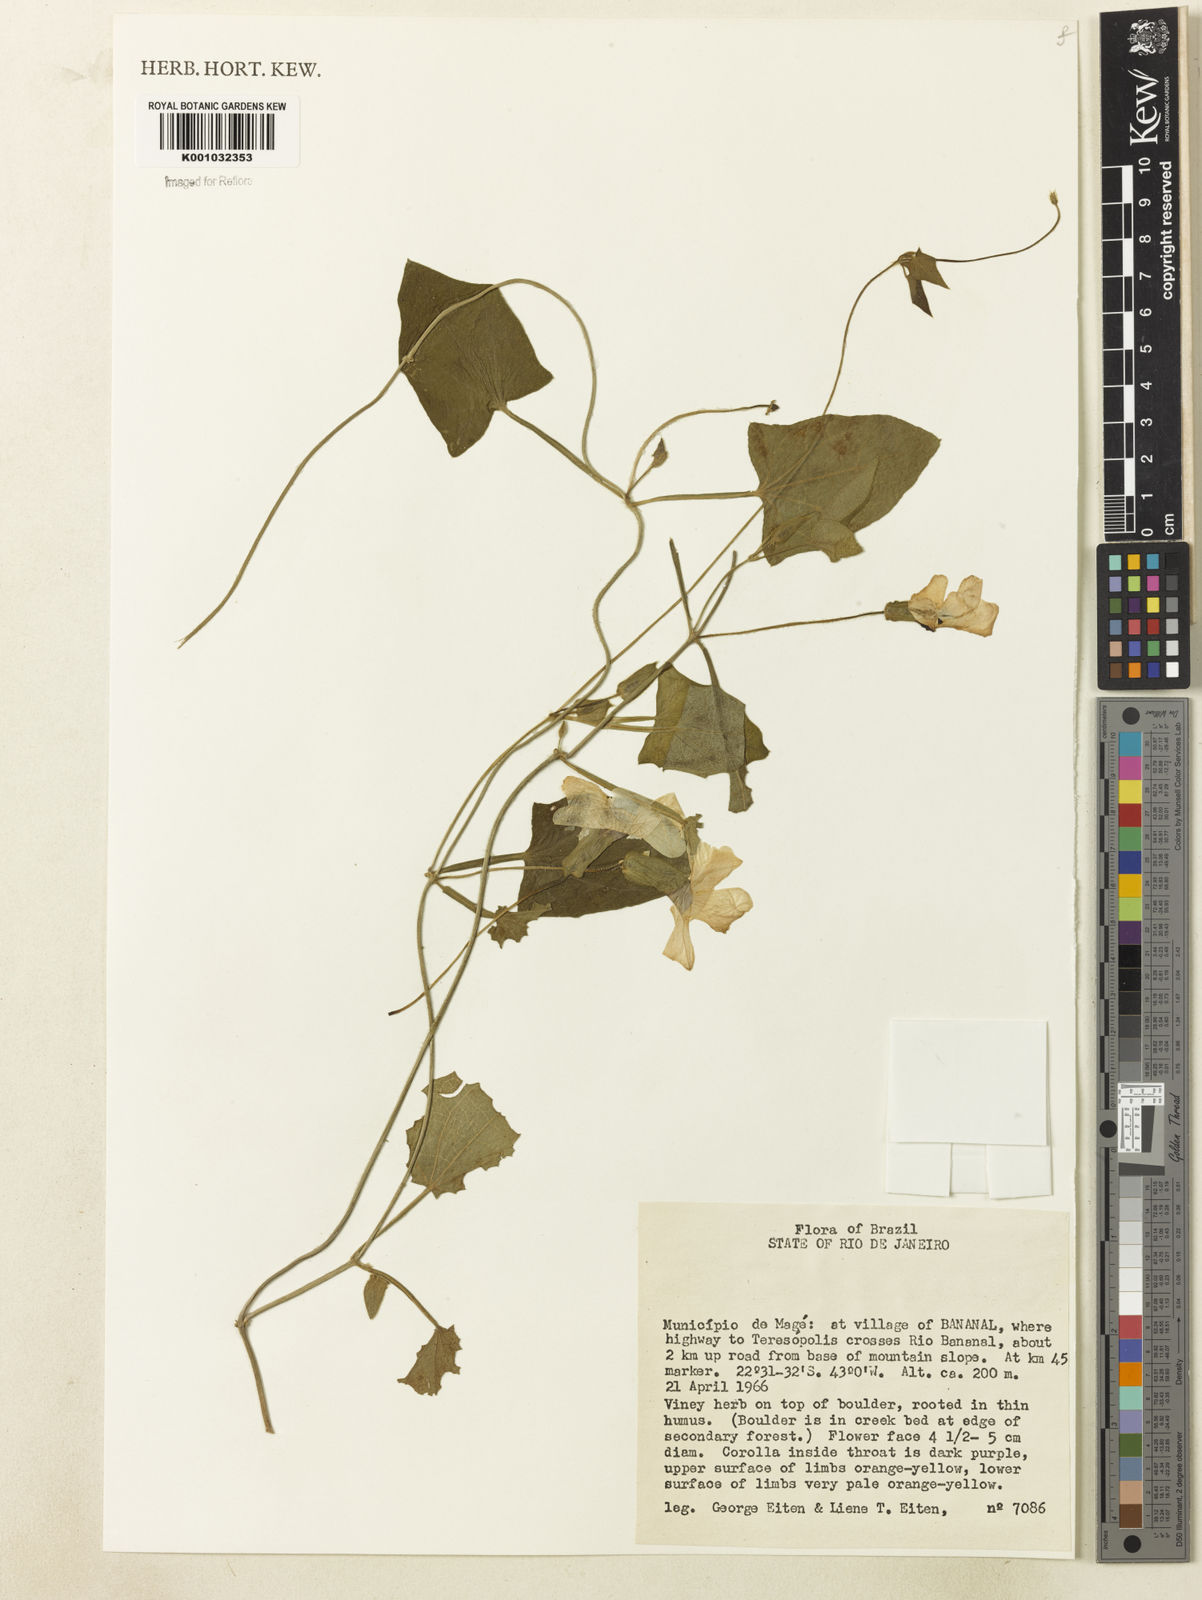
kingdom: Plantae
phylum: Tracheophyta
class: Magnoliopsida
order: Lamiales
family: Acanthaceae
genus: Thunbergia
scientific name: Thunbergia alata
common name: Blackeyed susan vine
